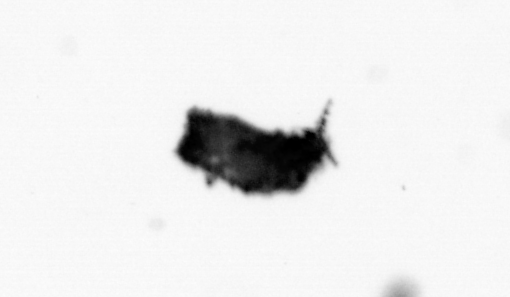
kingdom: Animalia
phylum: Arthropoda
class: Copepoda
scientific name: Copepoda
